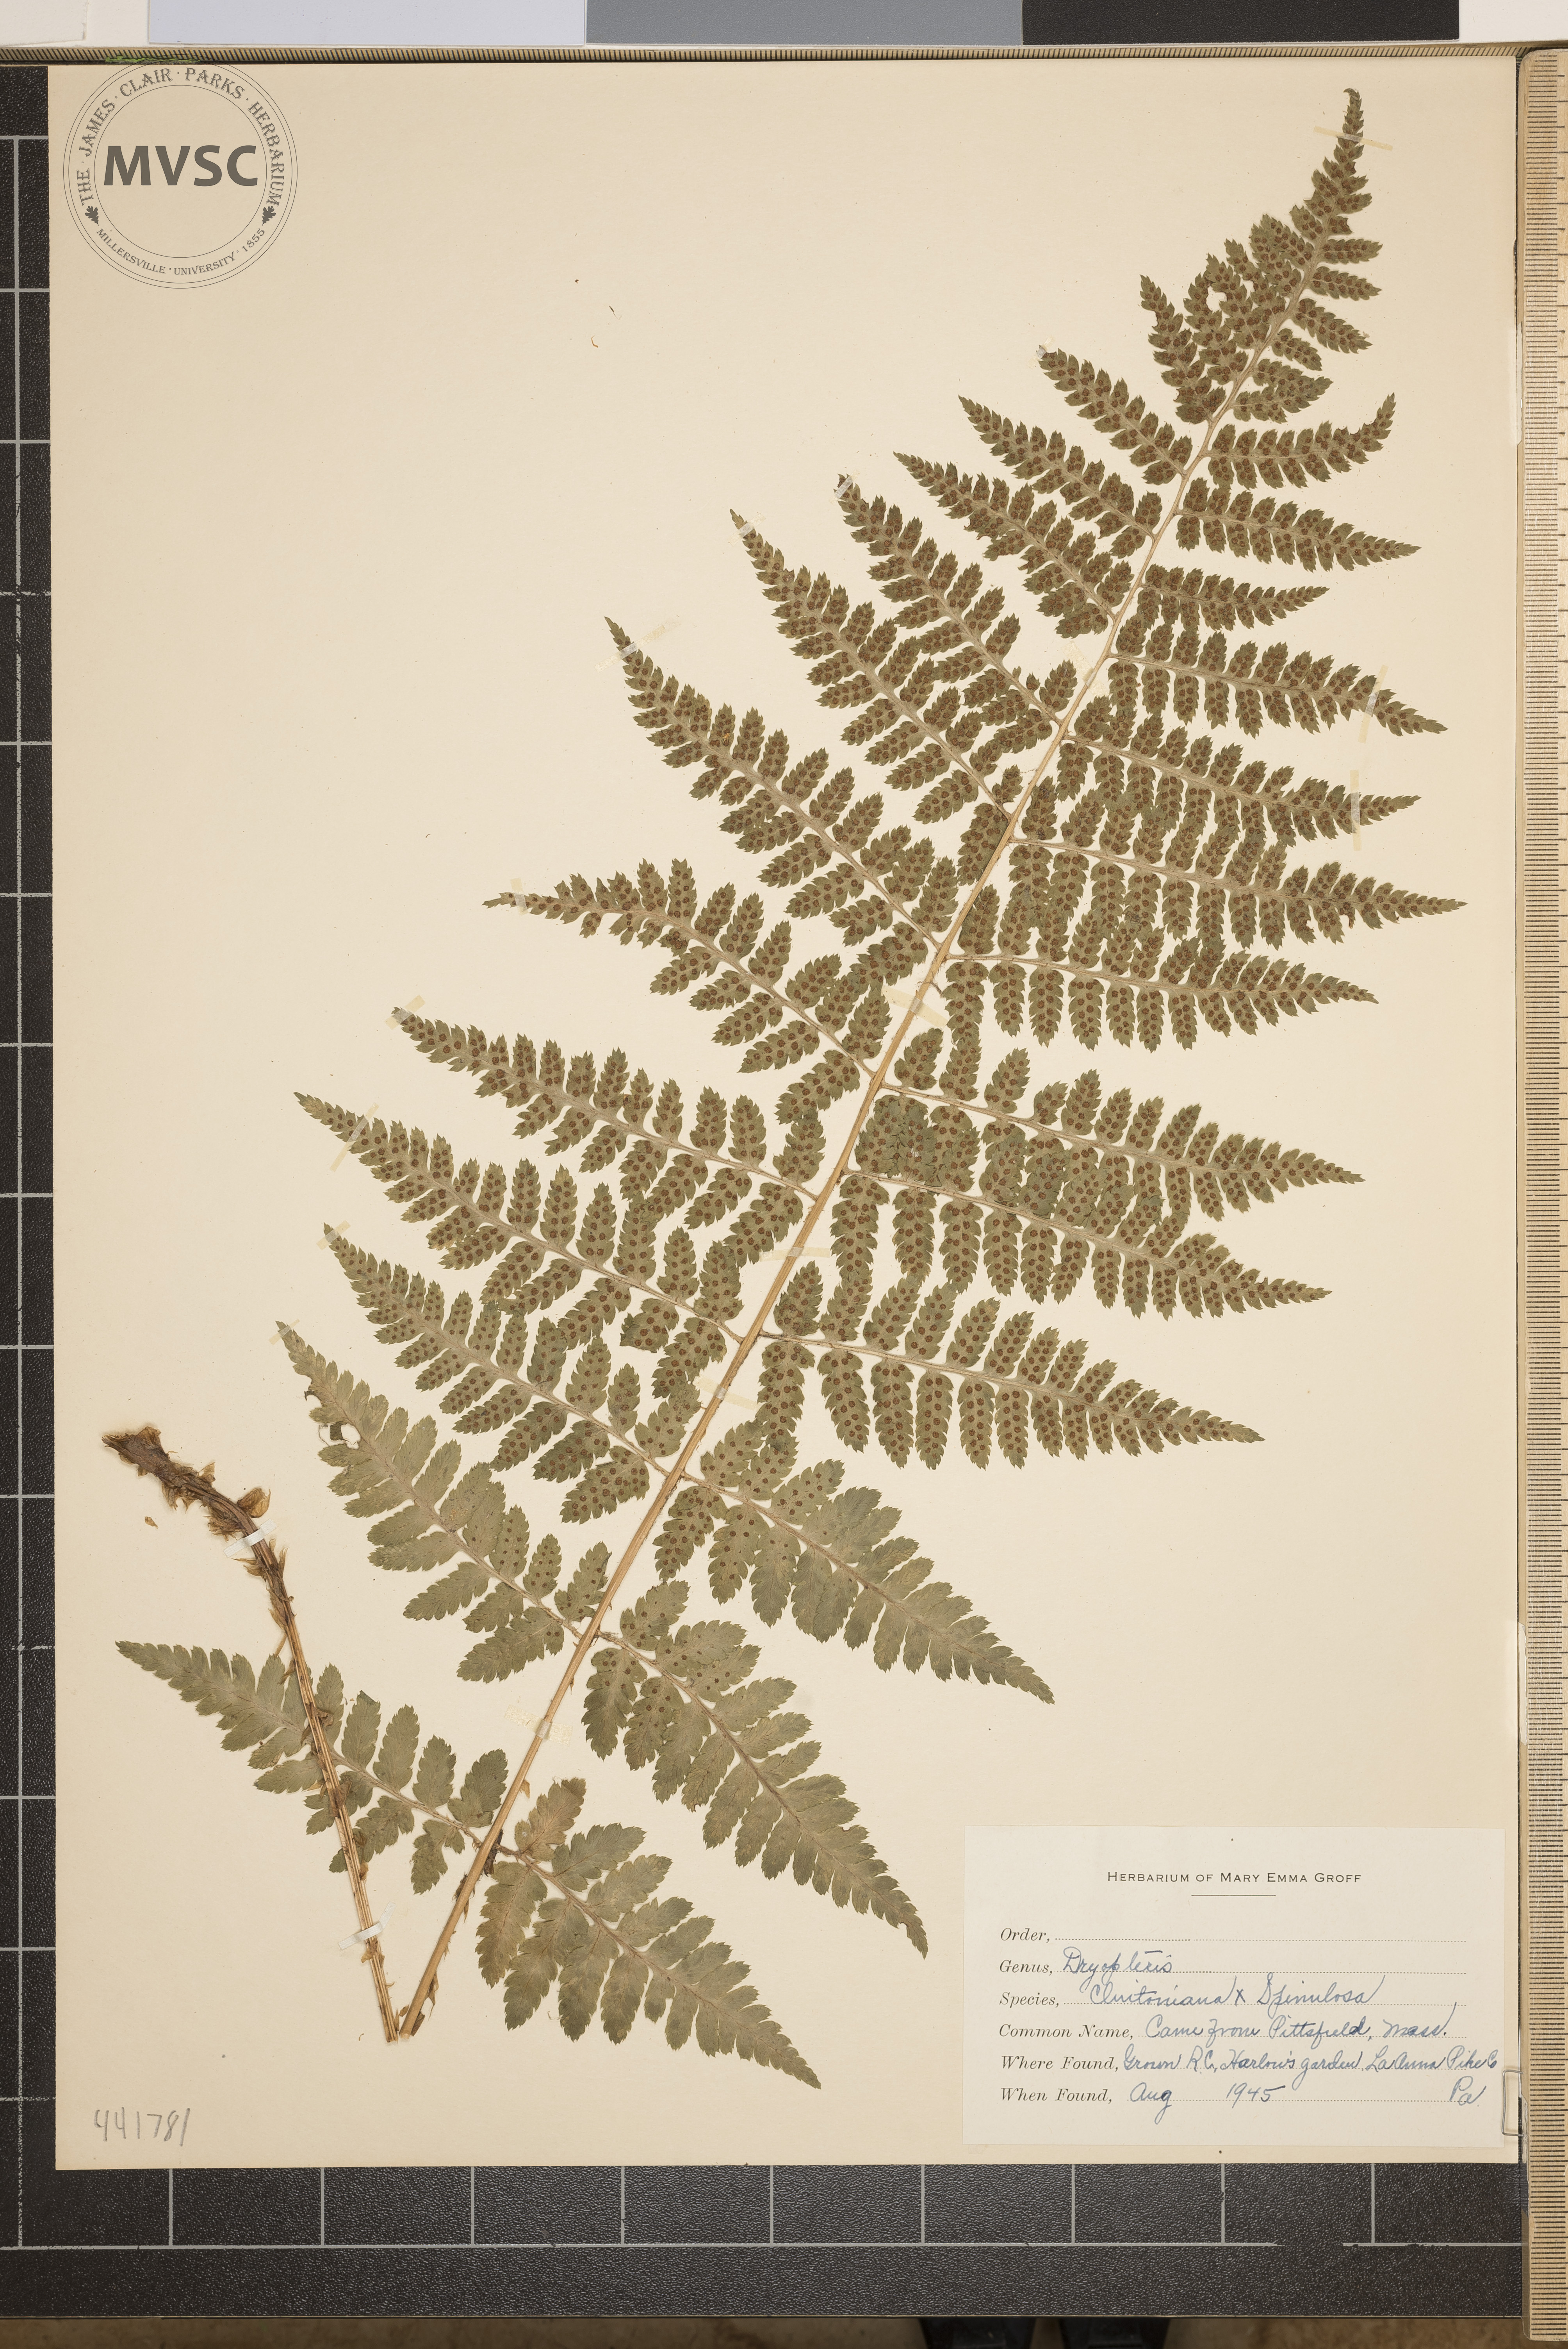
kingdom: Plantae
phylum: Tracheophyta
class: Polypodiopsida
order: Polypodiales
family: Dryopteridaceae
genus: Dryopteris
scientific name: Dryopteris
